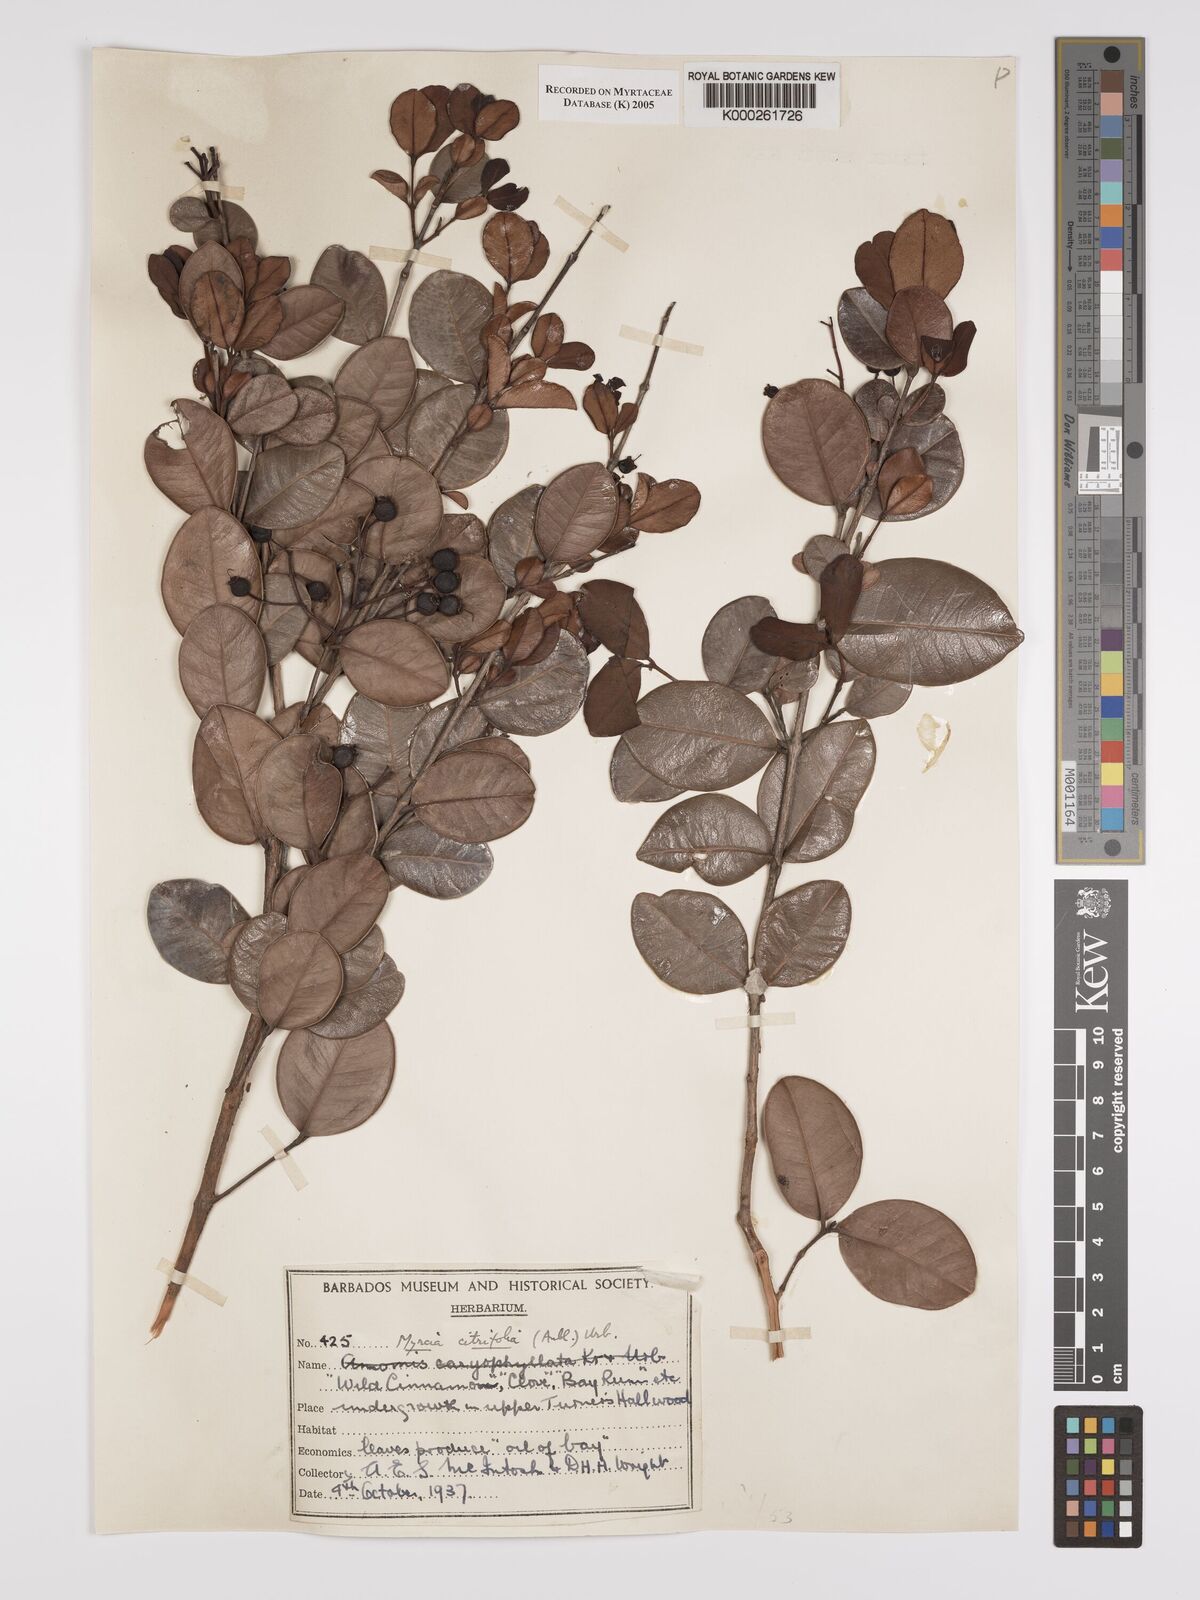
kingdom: Plantae
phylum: Tracheophyta
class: Magnoliopsida
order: Myrtales
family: Myrtaceae
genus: Myrcia
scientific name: Myrcia guianensis
